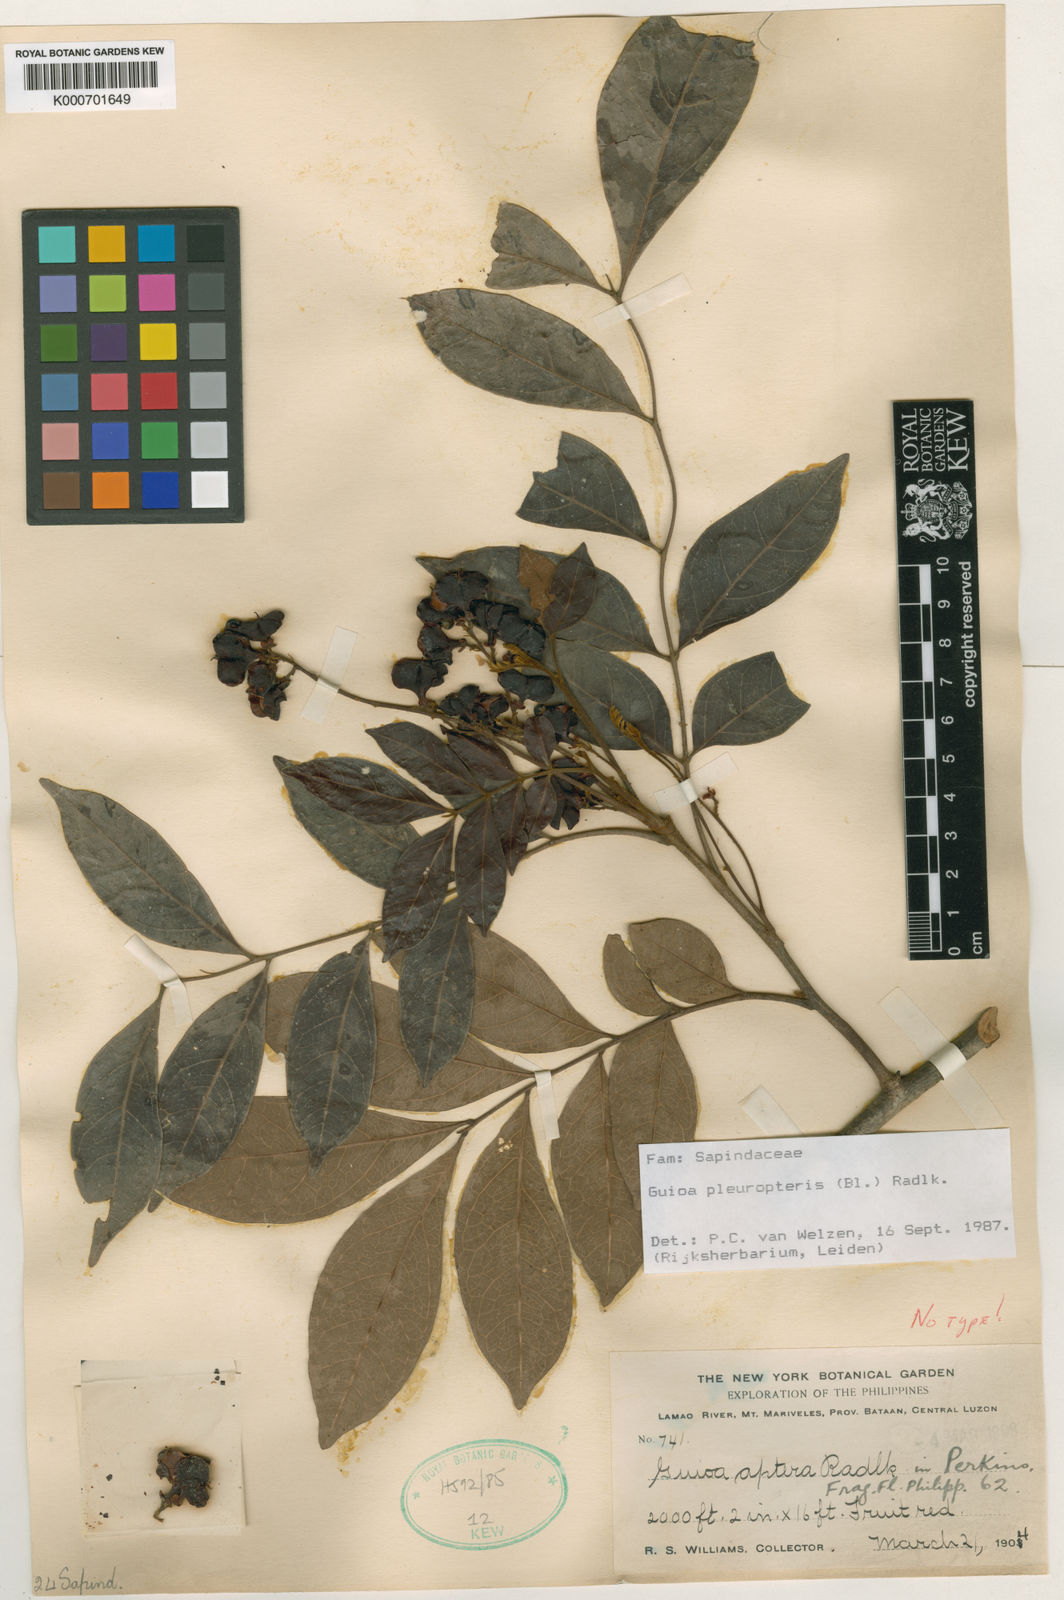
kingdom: Plantae
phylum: Tracheophyta
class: Magnoliopsida
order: Sapindales
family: Sapindaceae
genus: Guioa
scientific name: Guioa pleuropteris
